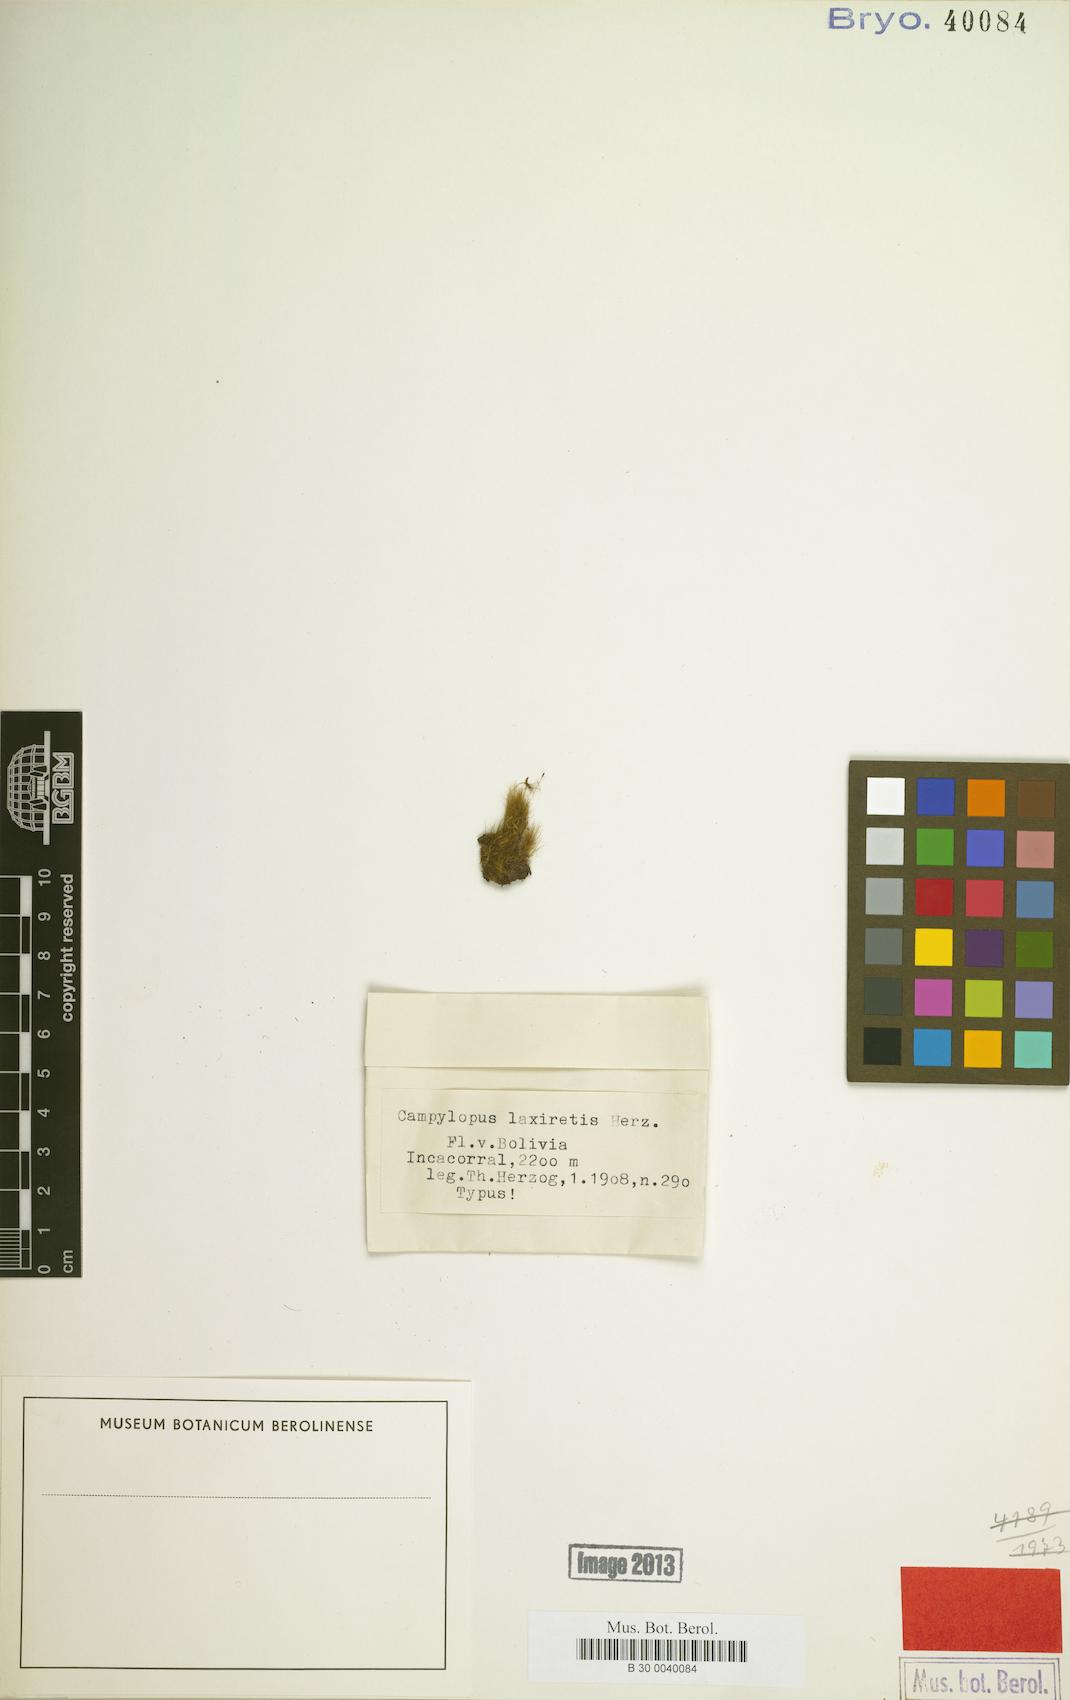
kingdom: Plantae
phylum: Bryophyta
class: Bryopsida
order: Dicranales
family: Leucobryaceae
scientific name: Leucobryaceae
